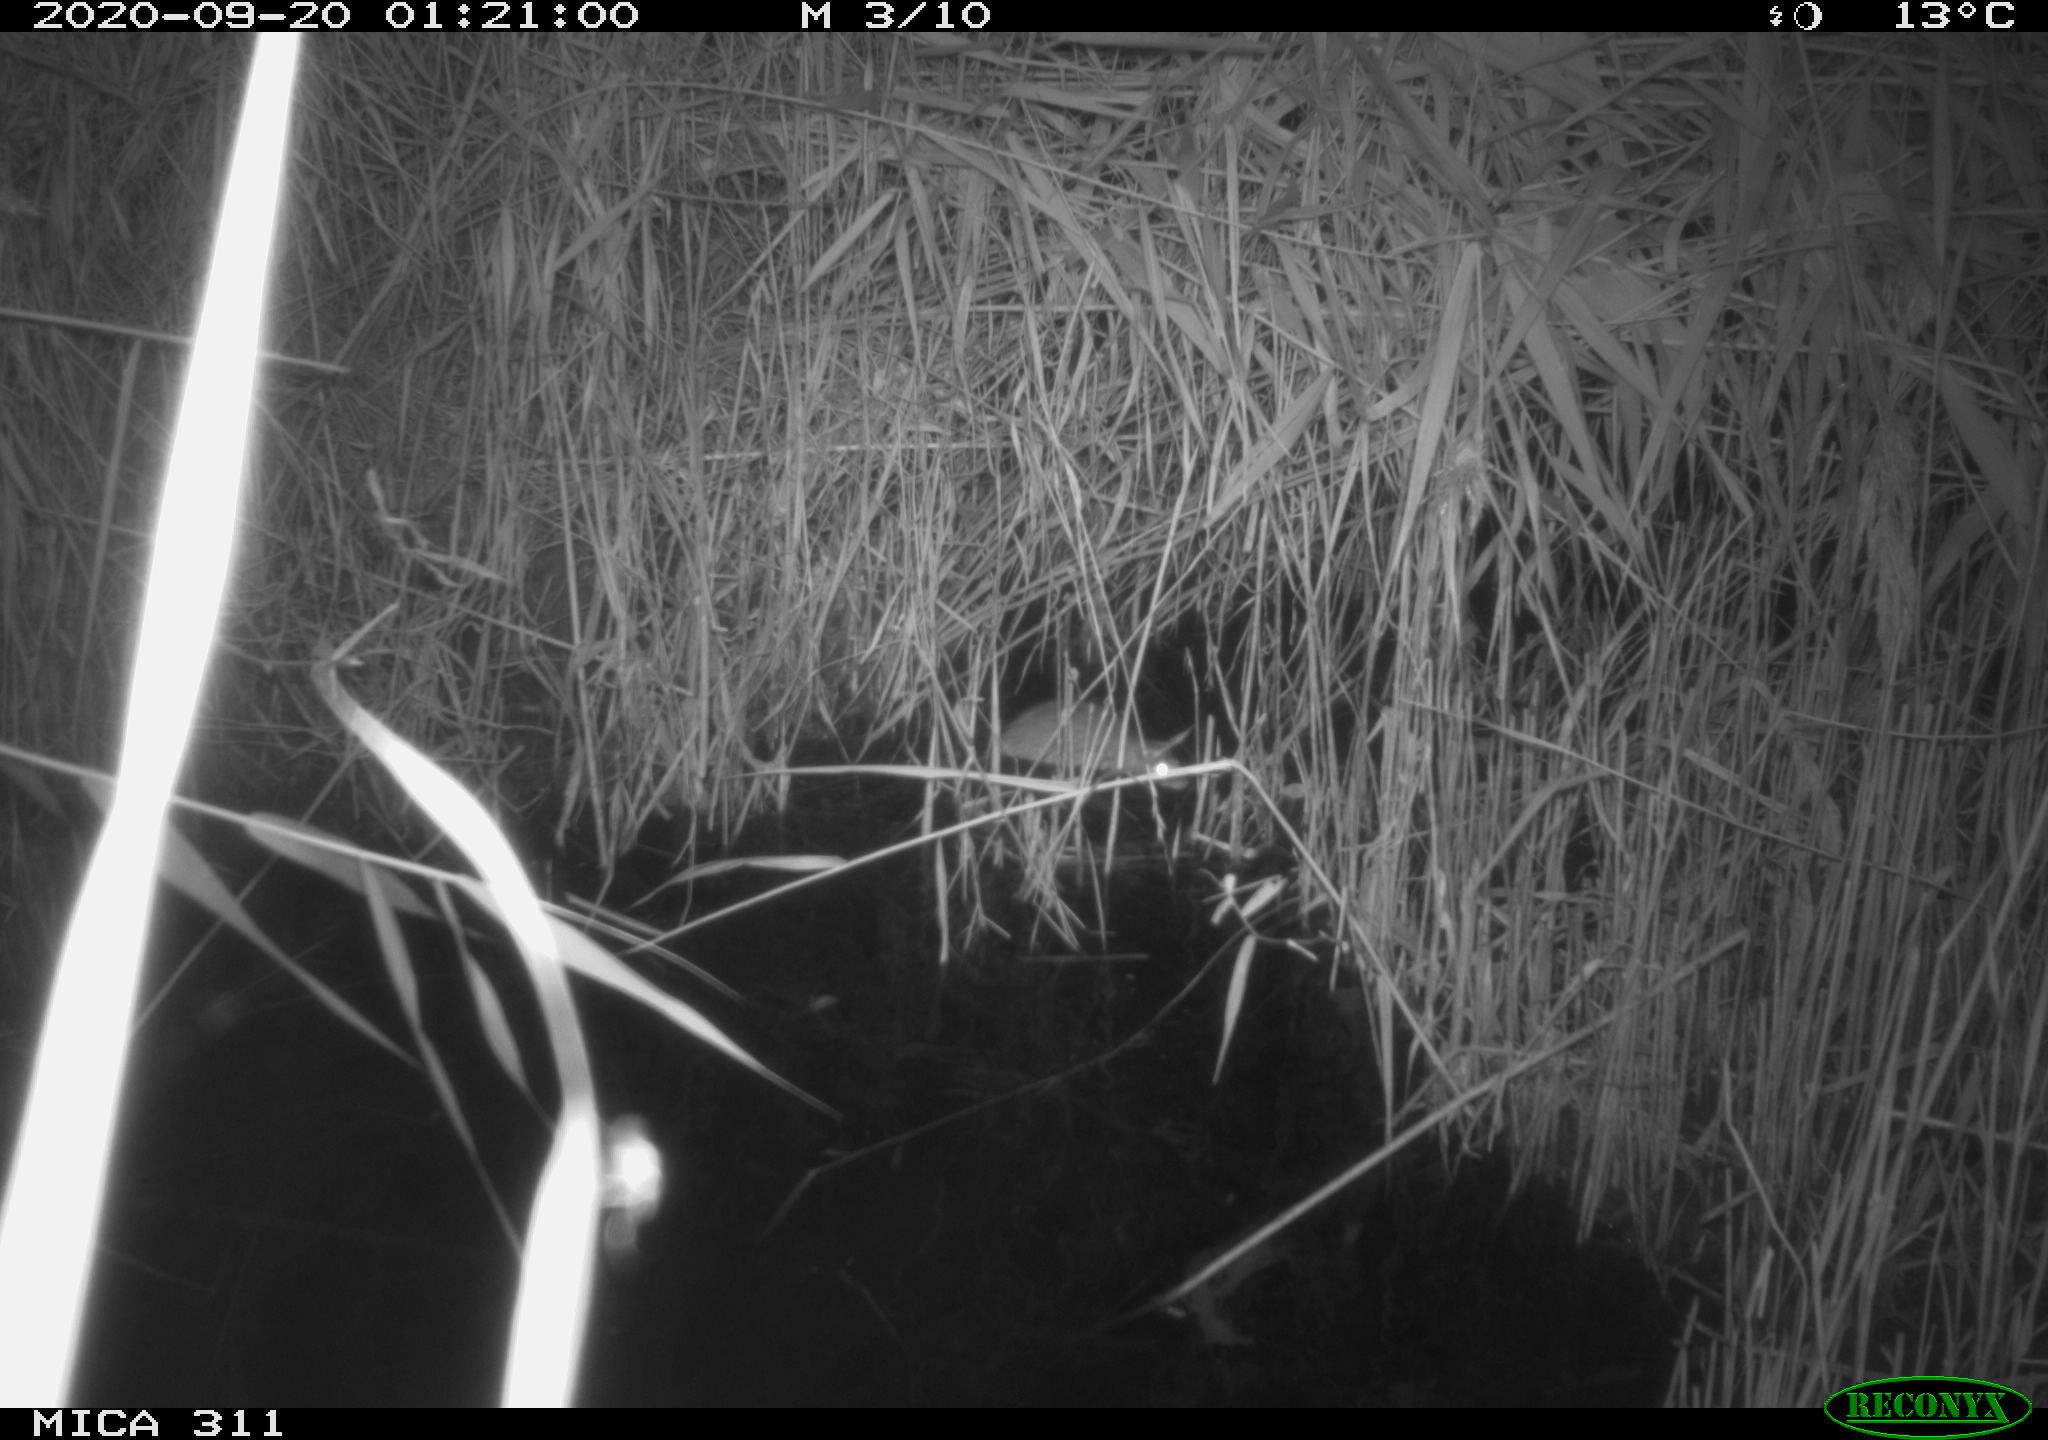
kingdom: Animalia
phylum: Chordata
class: Mammalia
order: Rodentia
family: Muridae
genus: Rattus
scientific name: Rattus norvegicus
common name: Brown rat
